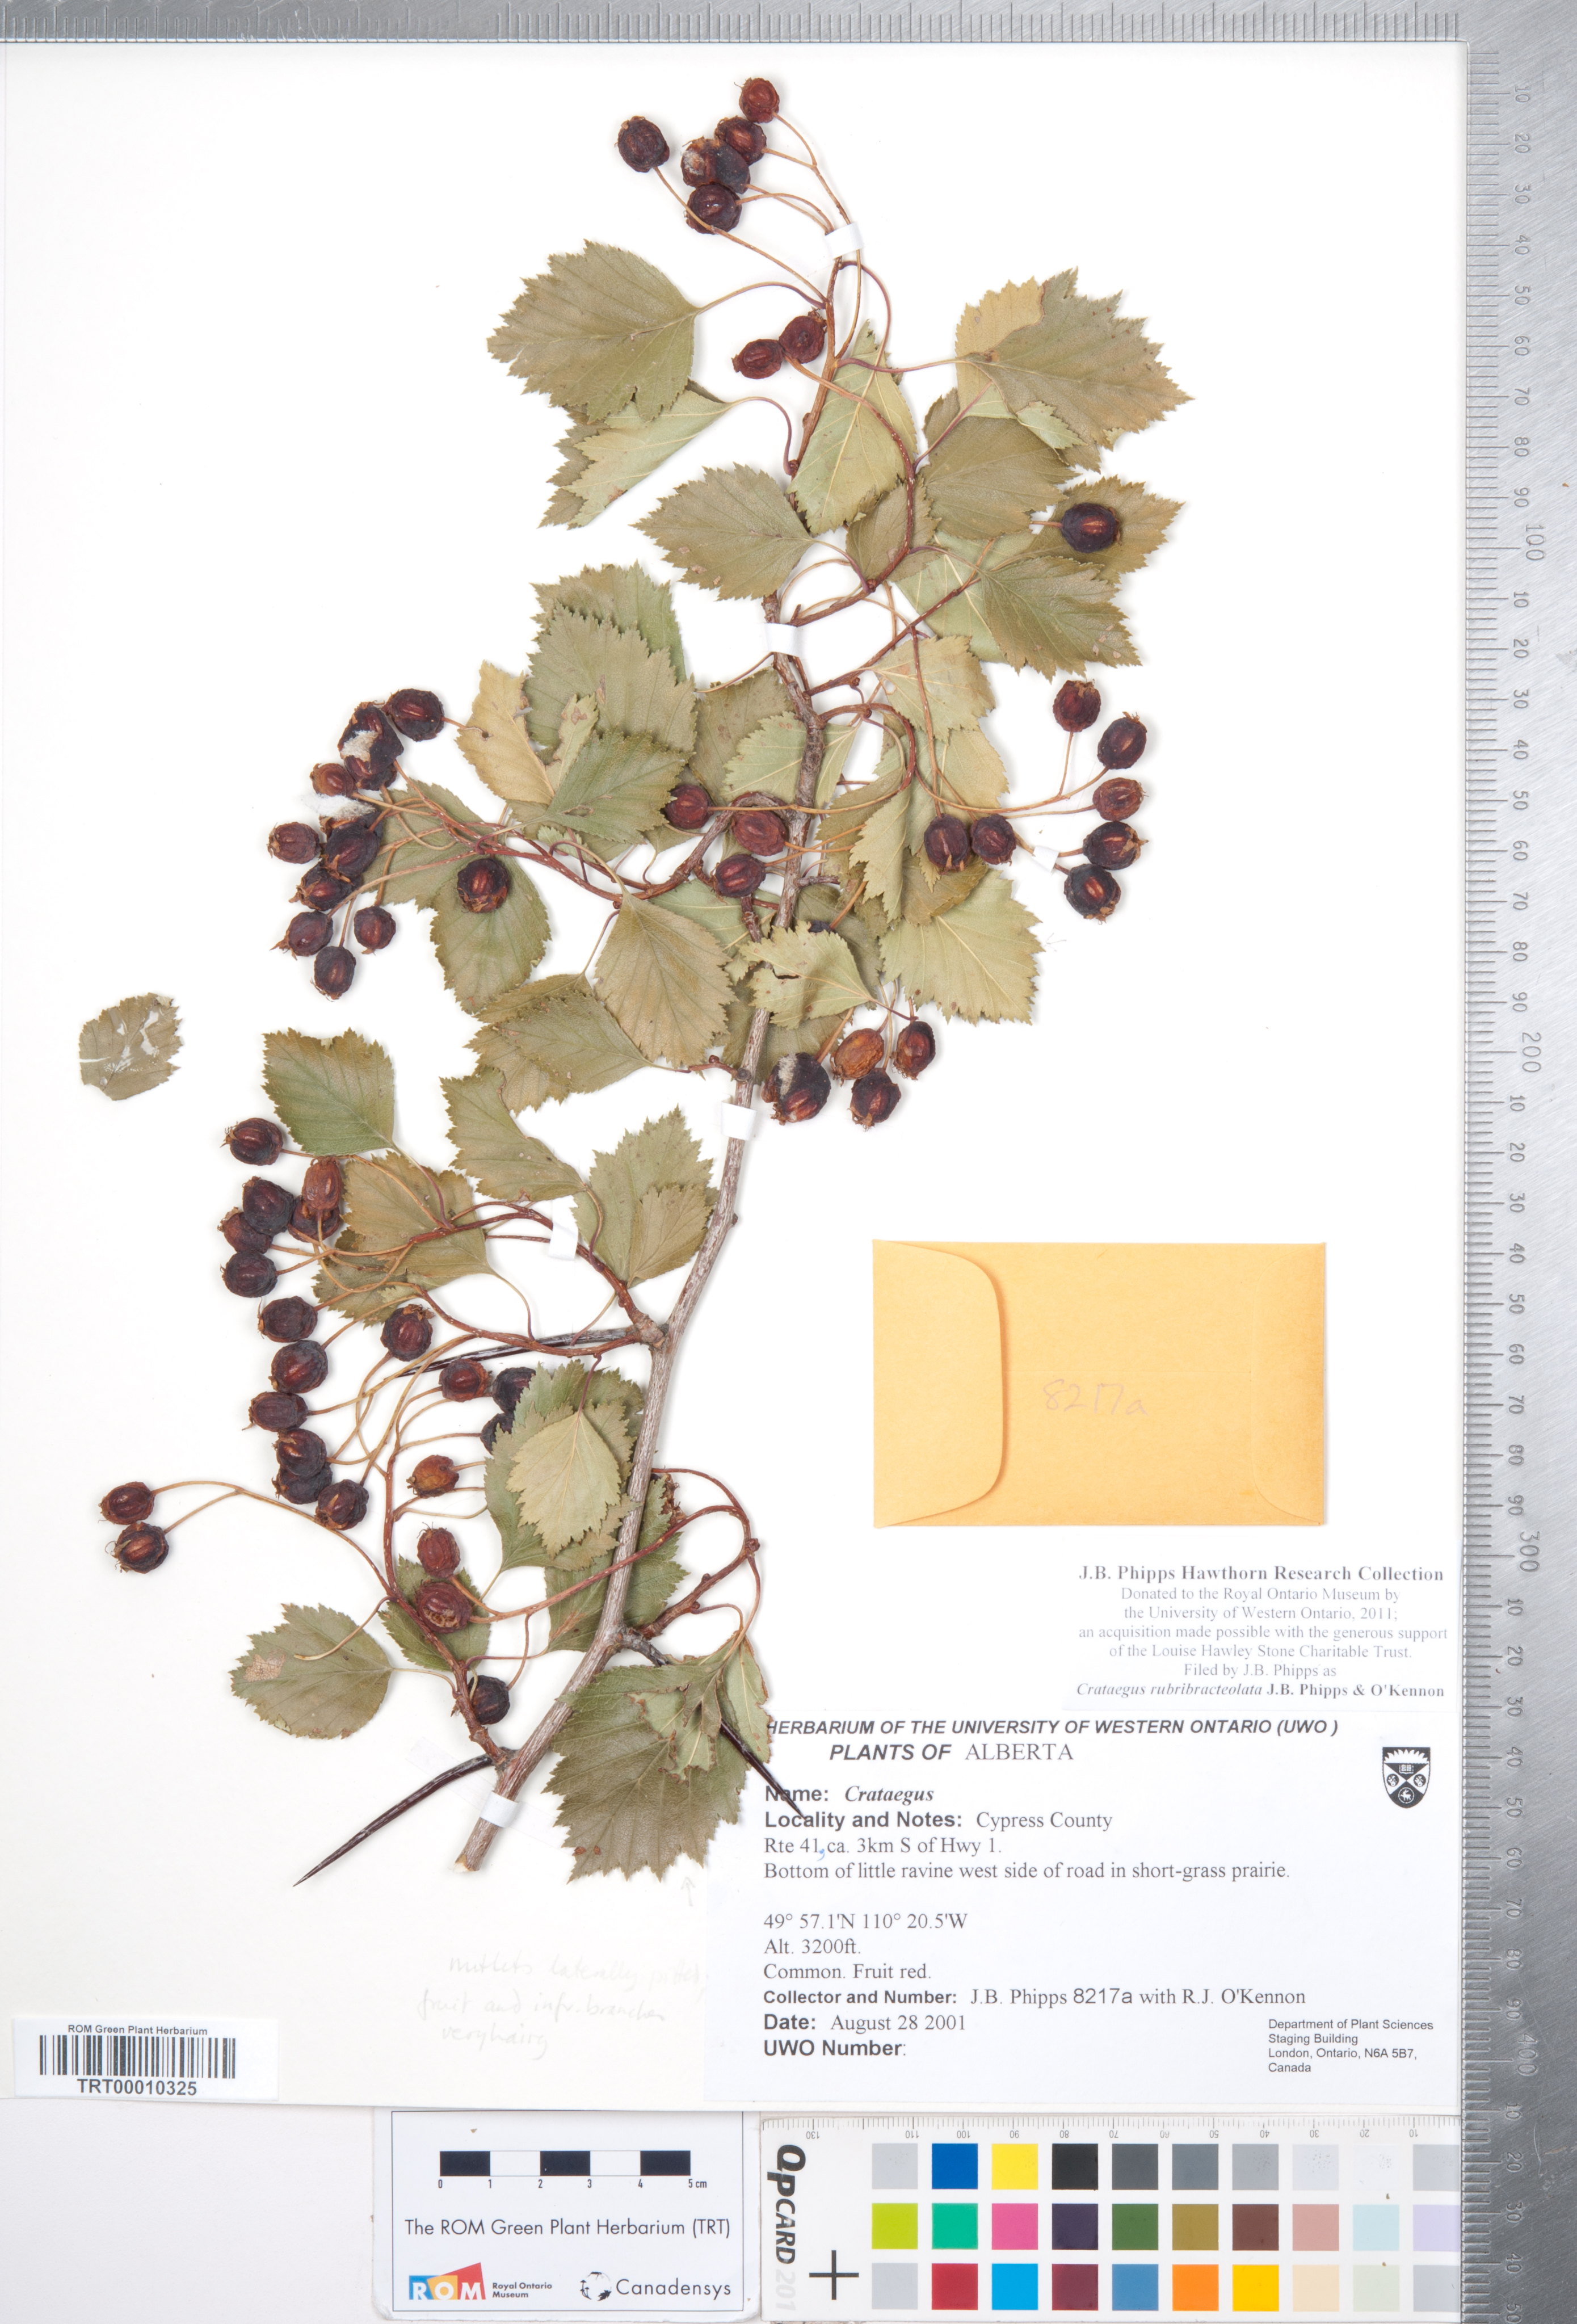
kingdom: Plantae
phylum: Tracheophyta
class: Magnoliopsida
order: Rosales
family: Rosaceae
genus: Crataegus
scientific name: Crataegus rubribracteolata
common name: Red bracteole hawthorn
